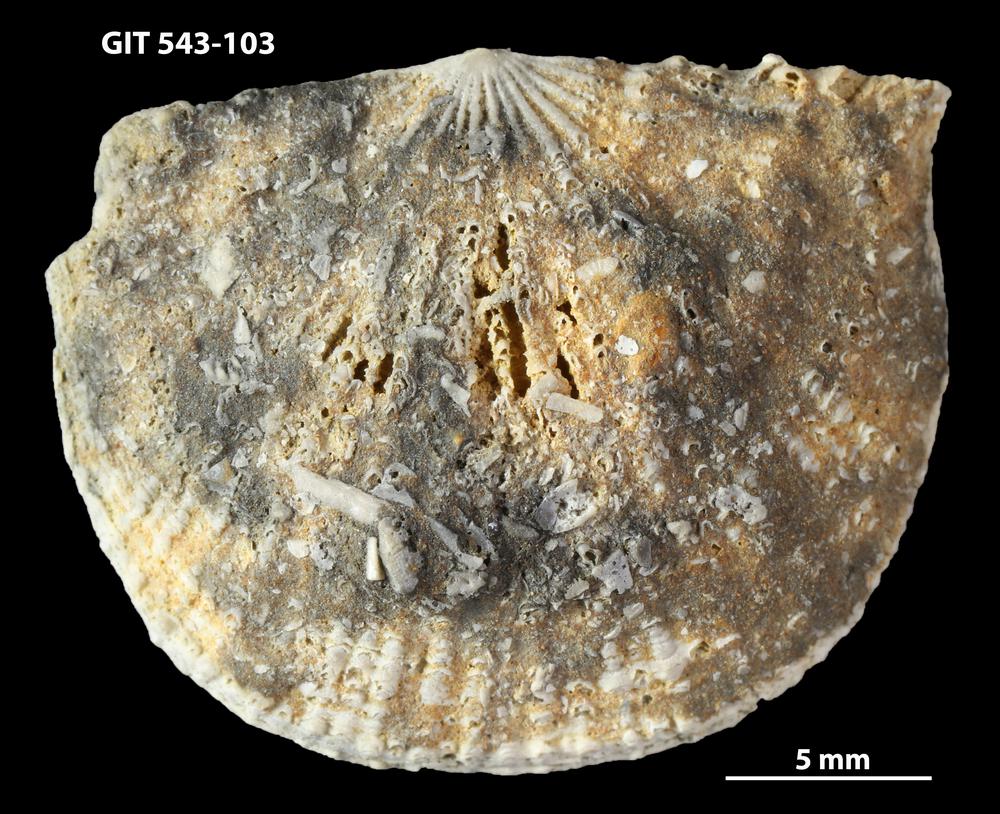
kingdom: Animalia
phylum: Brachiopoda
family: Gonambonitidae
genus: Estlandia
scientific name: Estlandia Orthisina marginata
